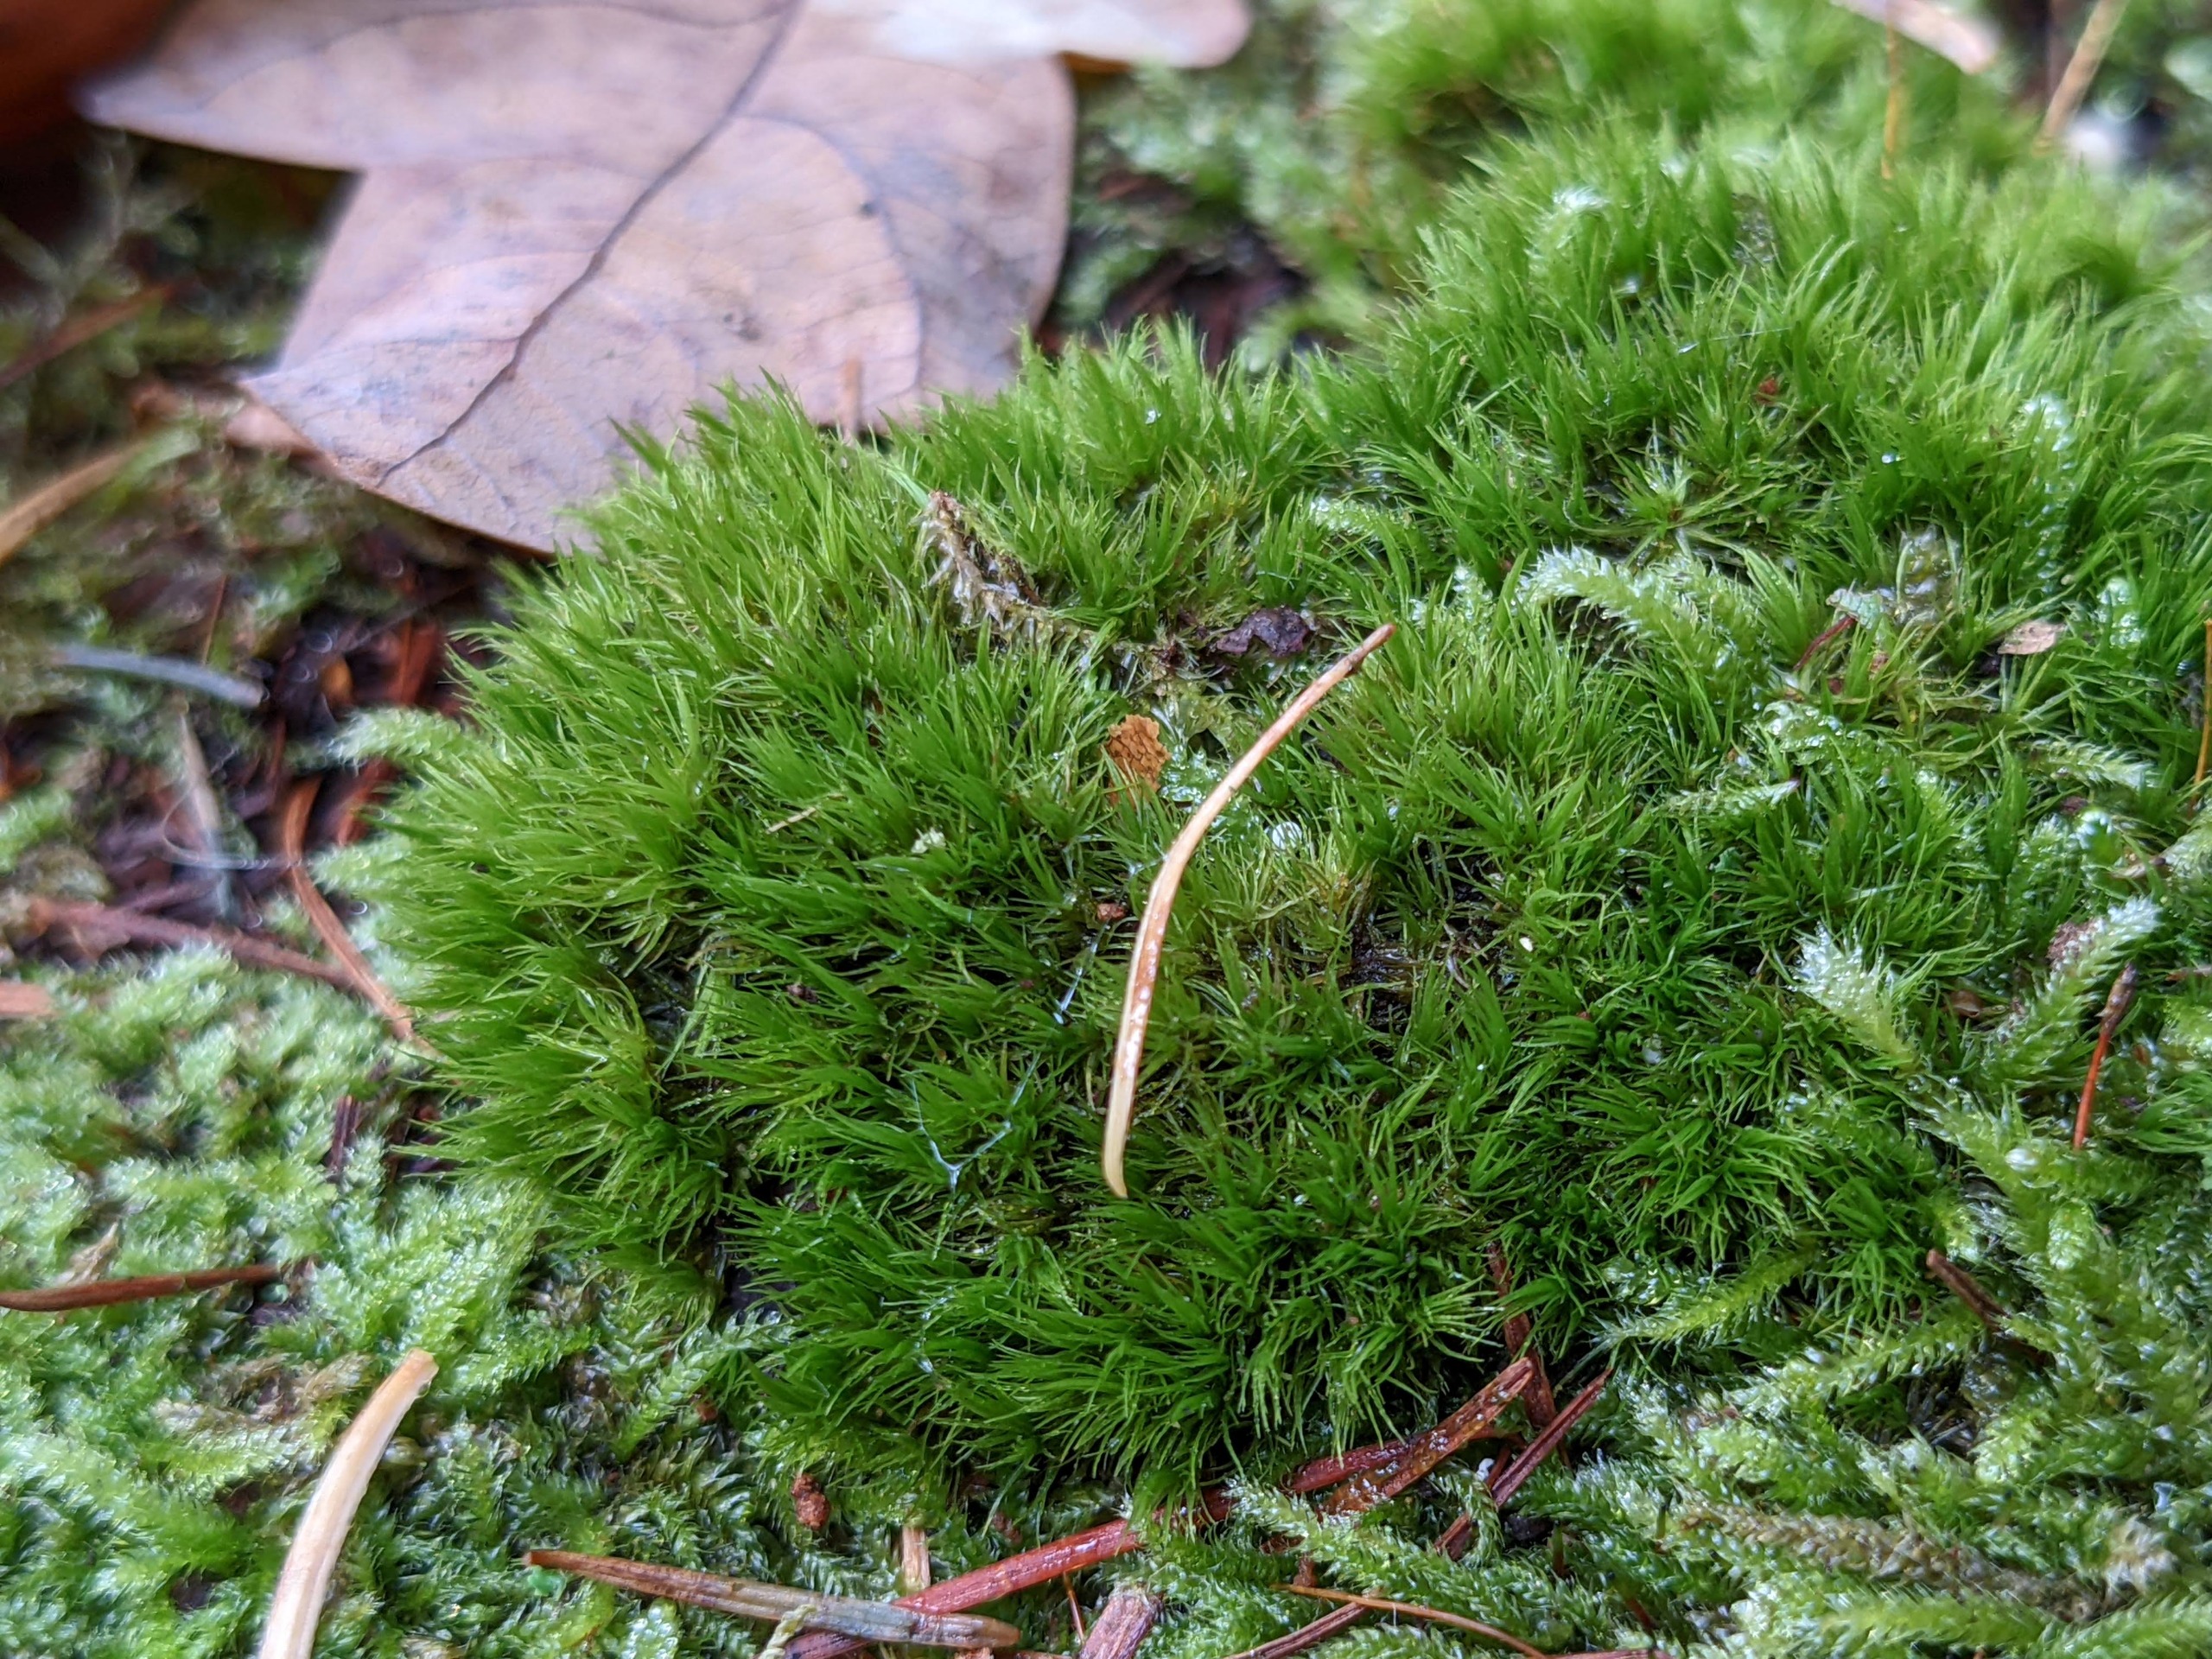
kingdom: Plantae
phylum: Bryophyta
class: Bryopsida
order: Dicranales
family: Dicranaceae
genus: Orthodicranum
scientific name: Orthodicranum montanum
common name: Tæt tyndvinge
